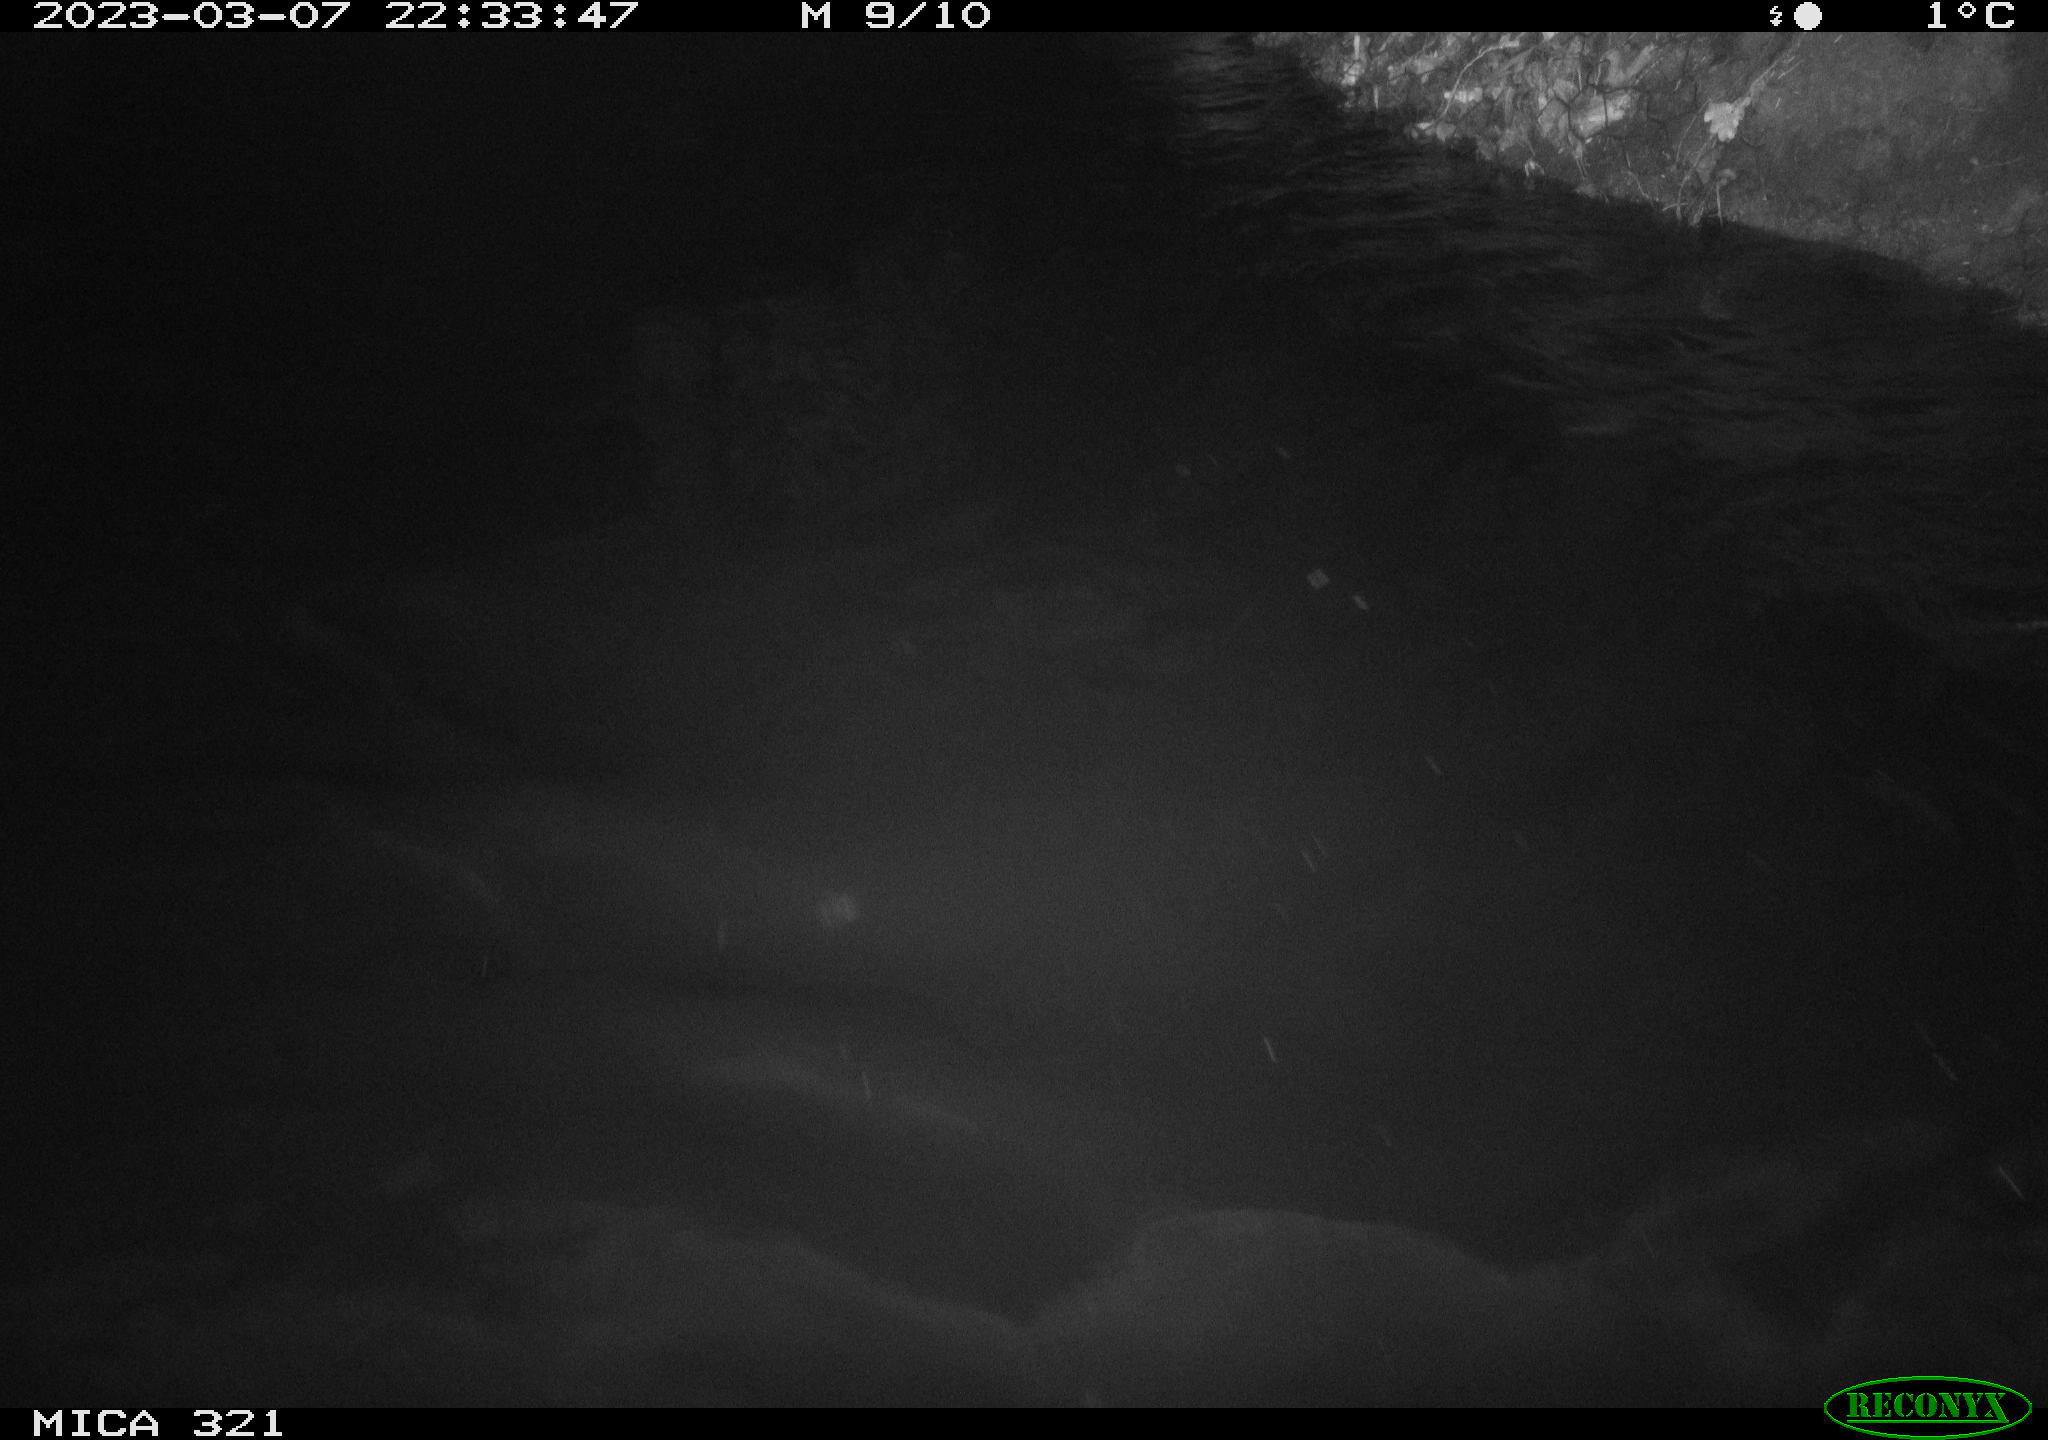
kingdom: Animalia
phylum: Chordata
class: Aves
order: Anseriformes
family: Anatidae
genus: Anas
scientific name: Anas
